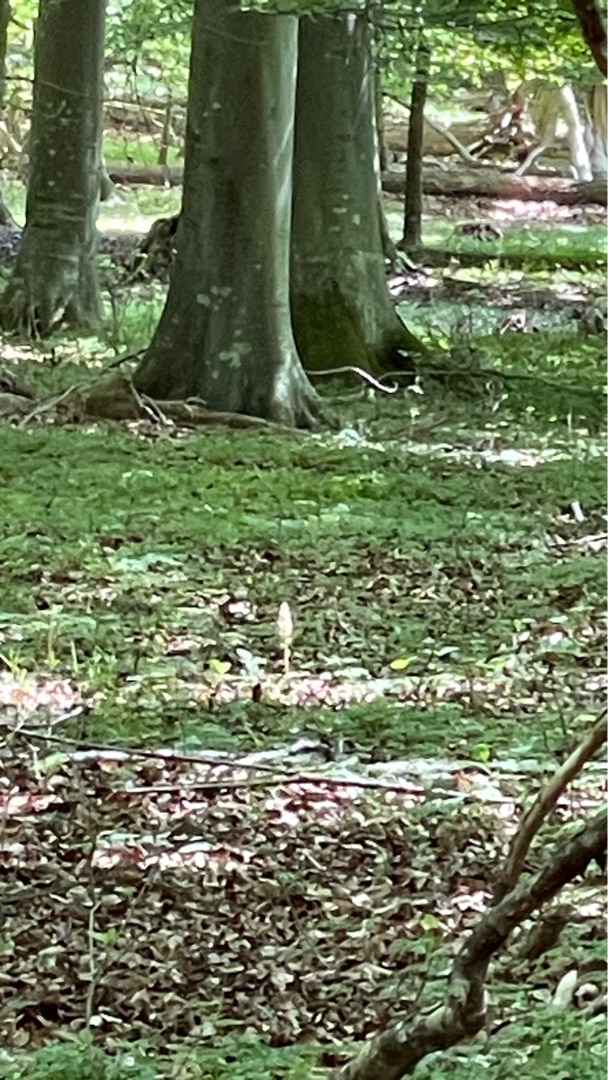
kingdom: Plantae
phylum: Tracheophyta
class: Liliopsida
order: Asparagales
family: Orchidaceae
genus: Neottia
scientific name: Neottia nidus-avis
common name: Rederod
